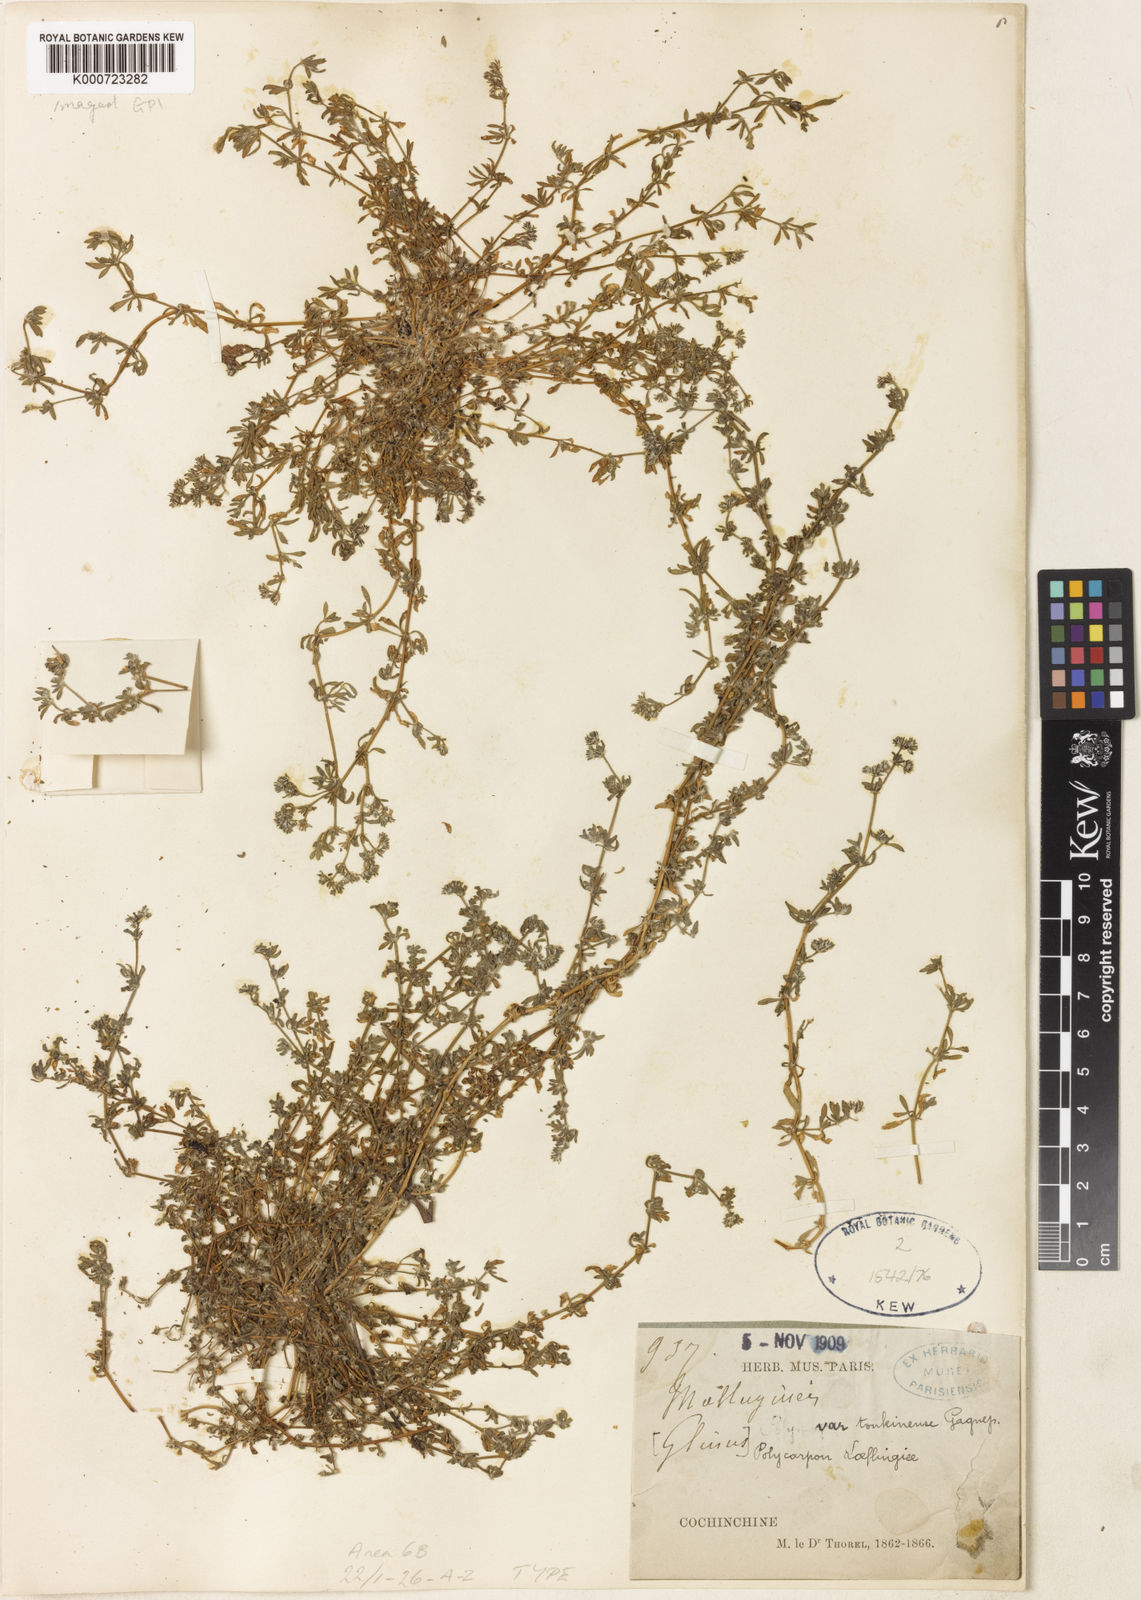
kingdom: Plantae
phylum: Tracheophyta
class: Magnoliopsida
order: Caryophyllales
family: Caryophyllaceae
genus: Polycarpon
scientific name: Polycarpon
